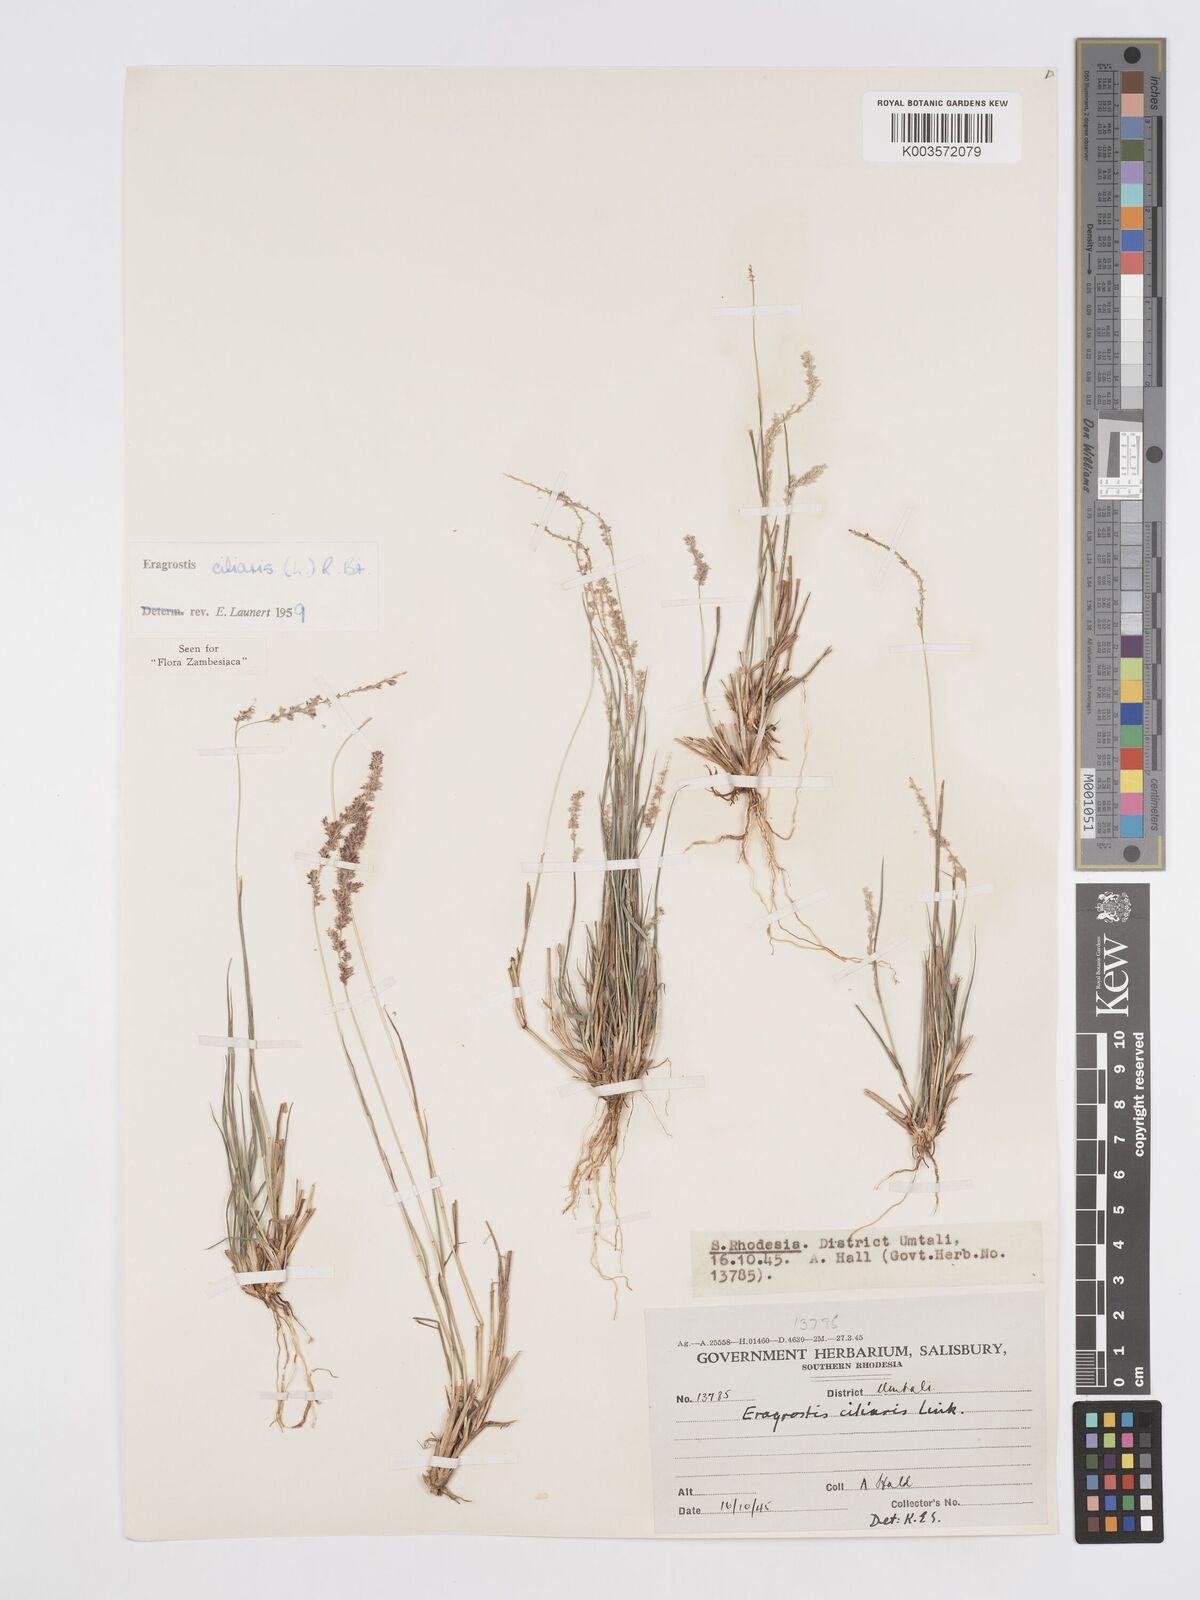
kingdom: Plantae
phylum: Tracheophyta
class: Liliopsida
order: Poales
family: Poaceae
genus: Eragrostis
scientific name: Eragrostis ciliaris
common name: Gophertail lovegrass
